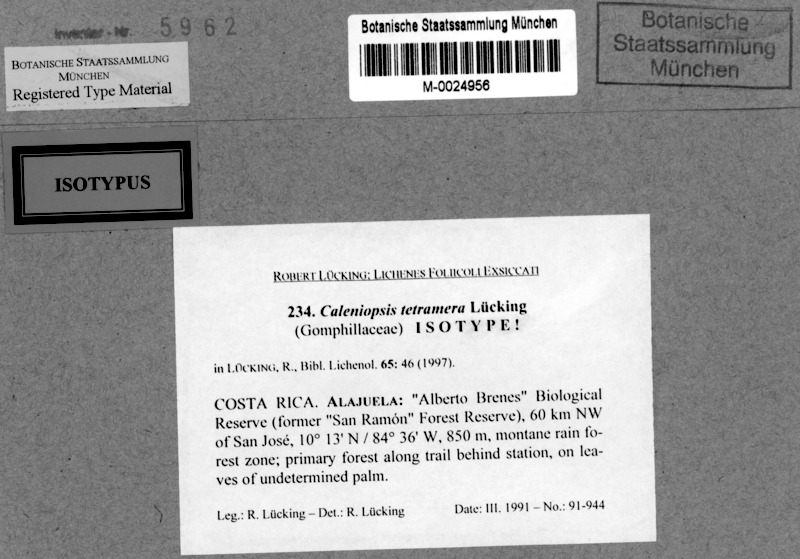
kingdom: Fungi
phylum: Ascomycota
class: Lecanoromycetes
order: Ostropales
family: Gomphillaceae
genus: Caleniopsis
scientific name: Caleniopsis tetramera
